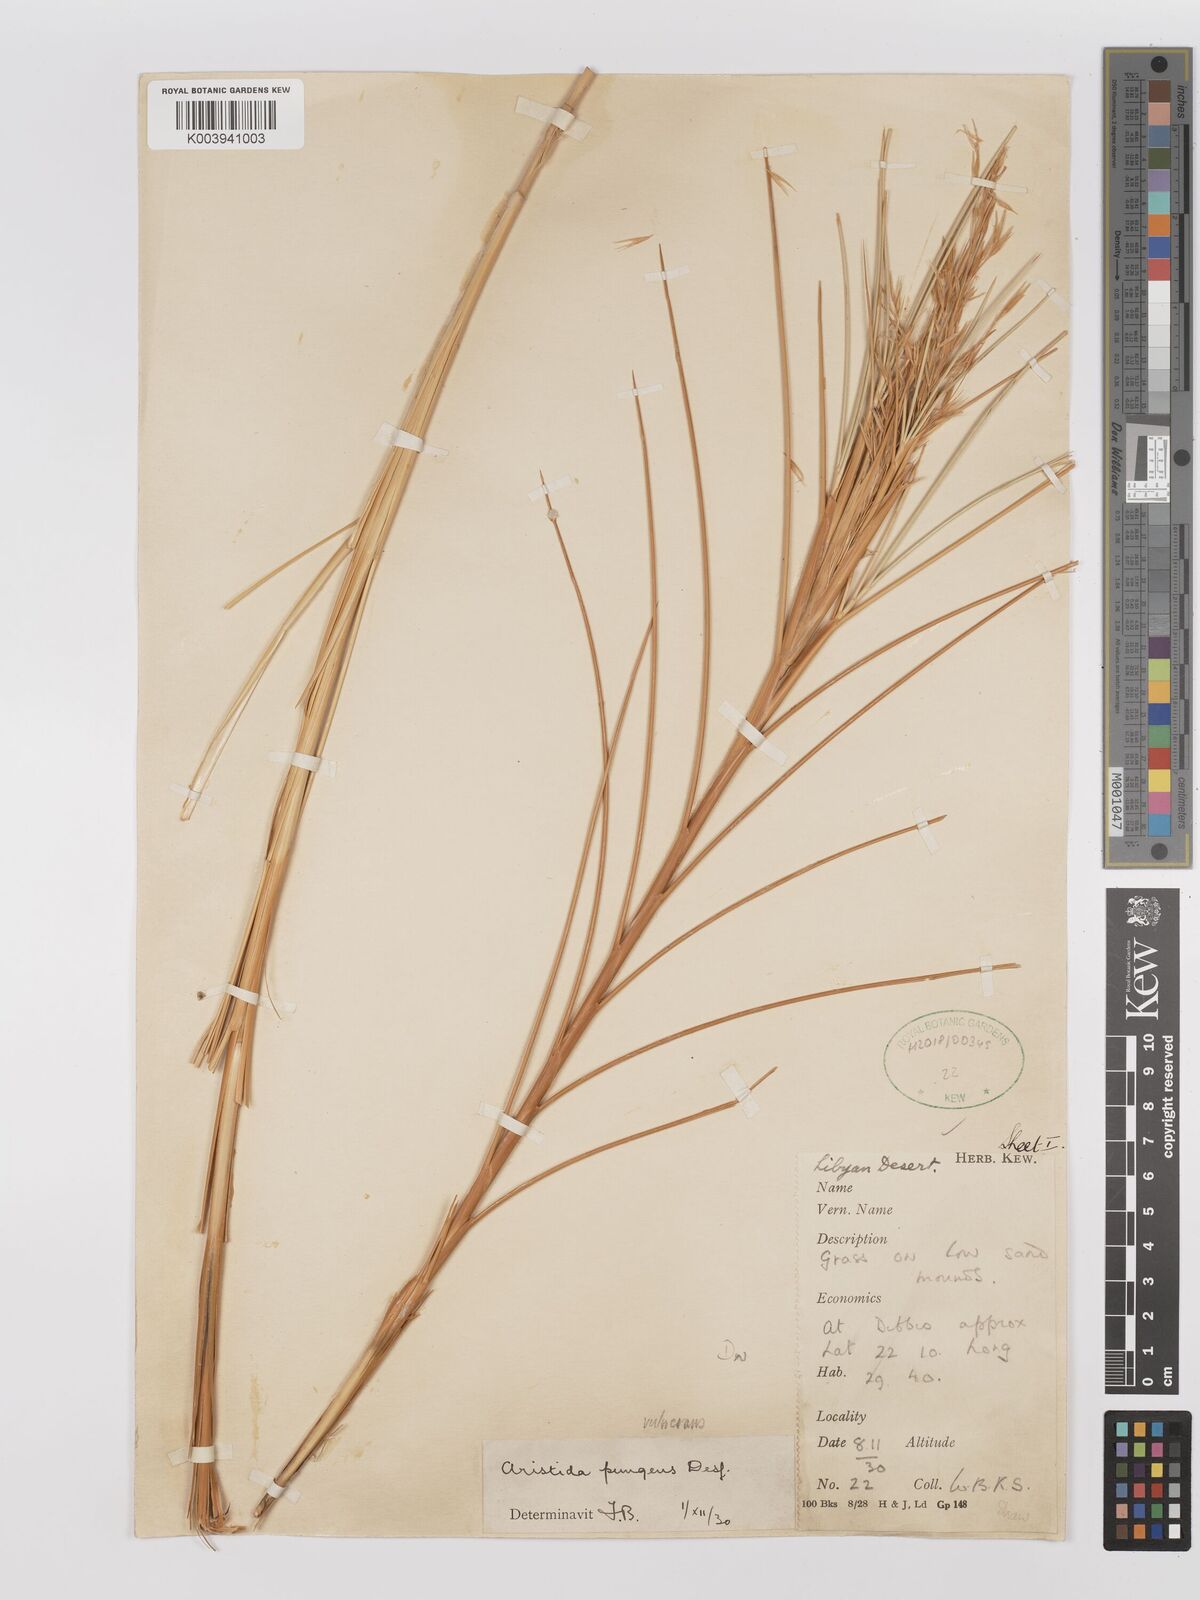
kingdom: Plantae
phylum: Tracheophyta
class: Liliopsida
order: Poales
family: Poaceae
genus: Stipagrostis
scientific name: Stipagrostis vulnerans
